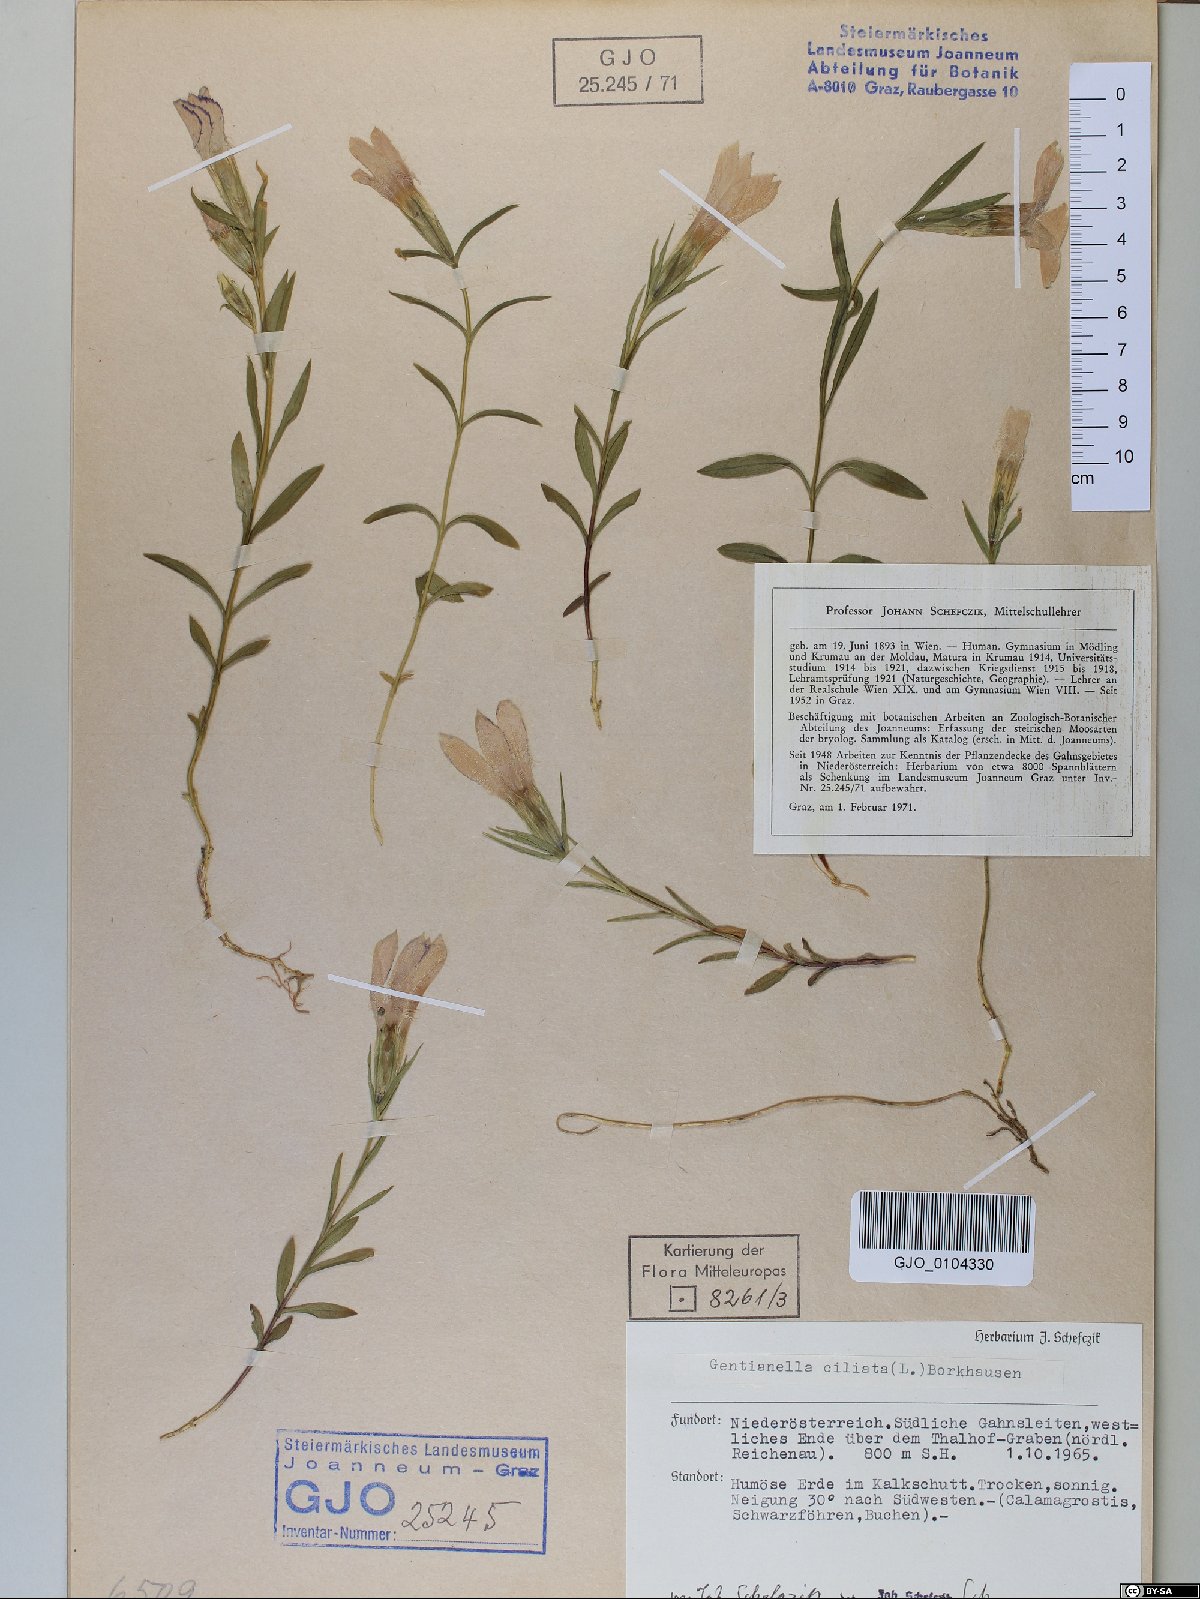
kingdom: Plantae
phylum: Tracheophyta
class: Magnoliopsida
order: Gentianales
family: Gentianaceae
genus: Gentianopsis
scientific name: Gentianopsis ciliata
